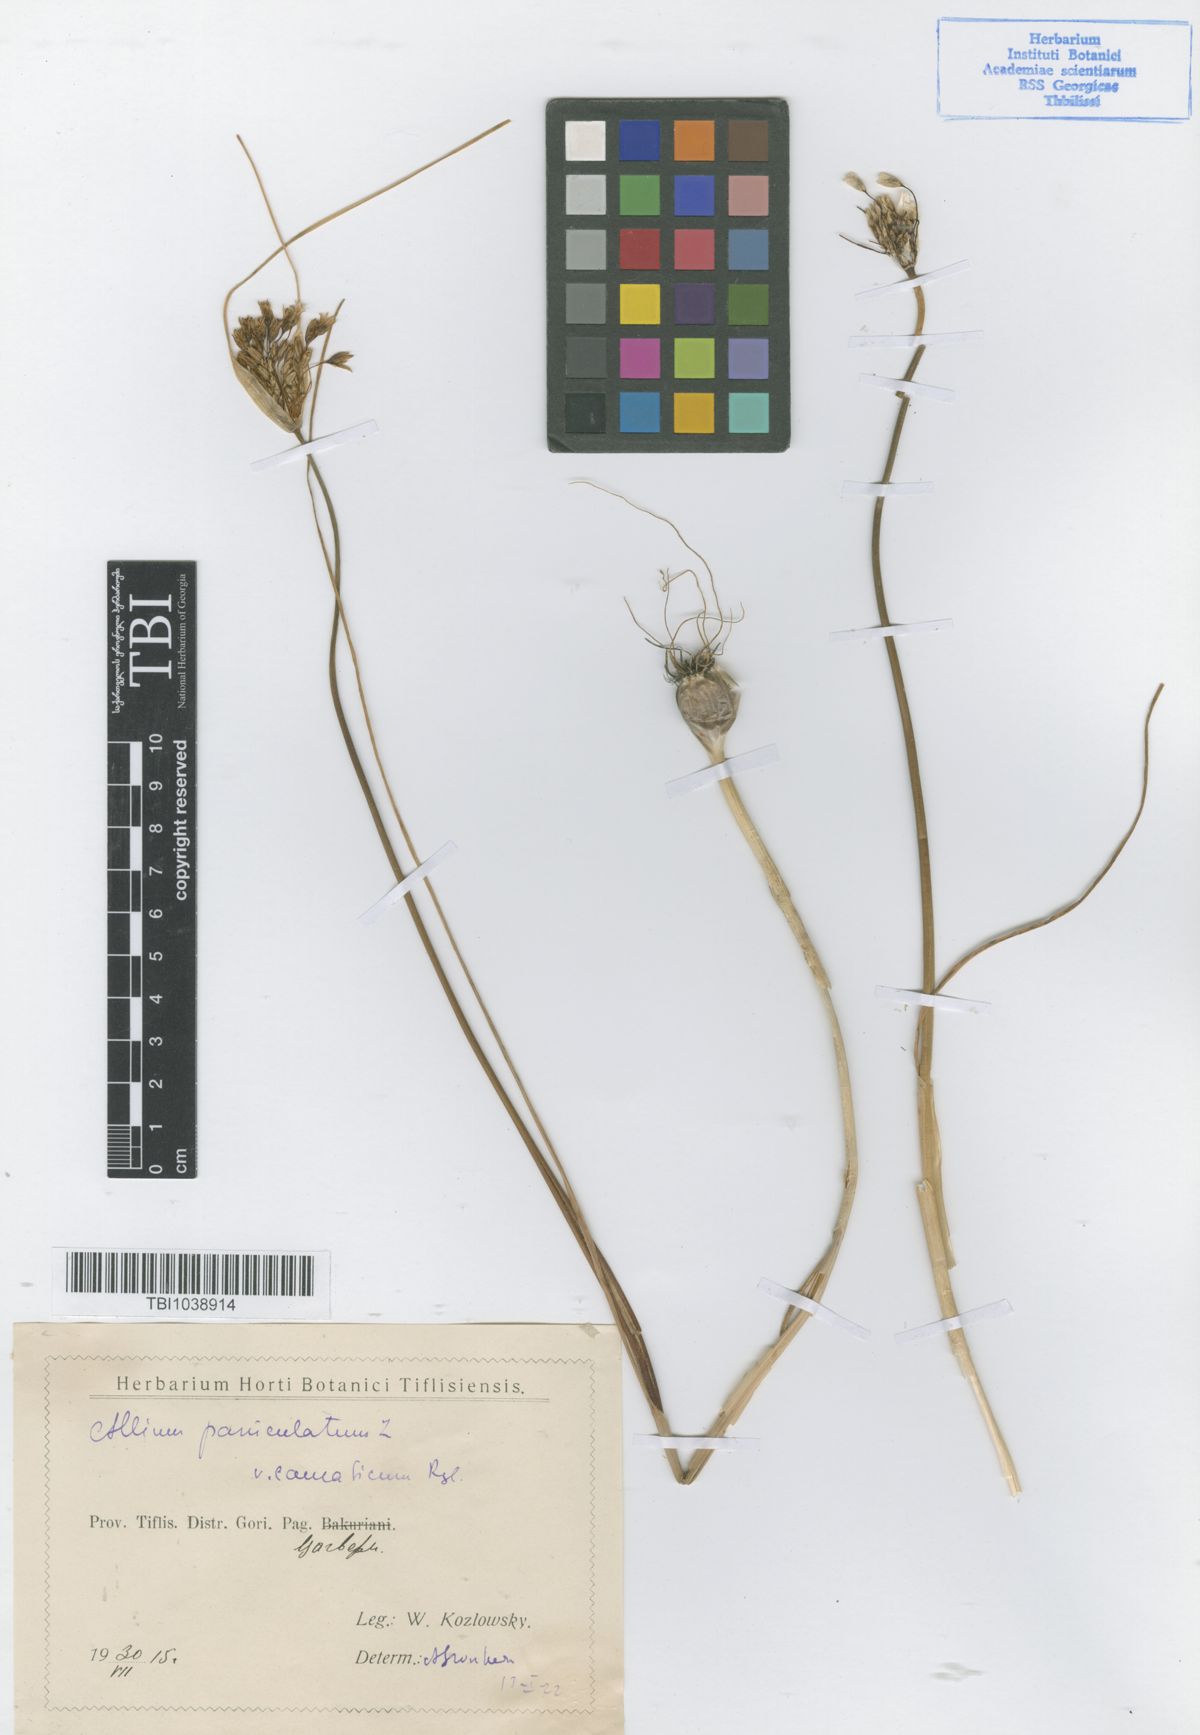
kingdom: Plantae
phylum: Tracheophyta
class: Liliopsida
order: Asparagales
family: Amaryllidaceae
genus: Allium
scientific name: Allium paniculatum
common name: Pale garlic
